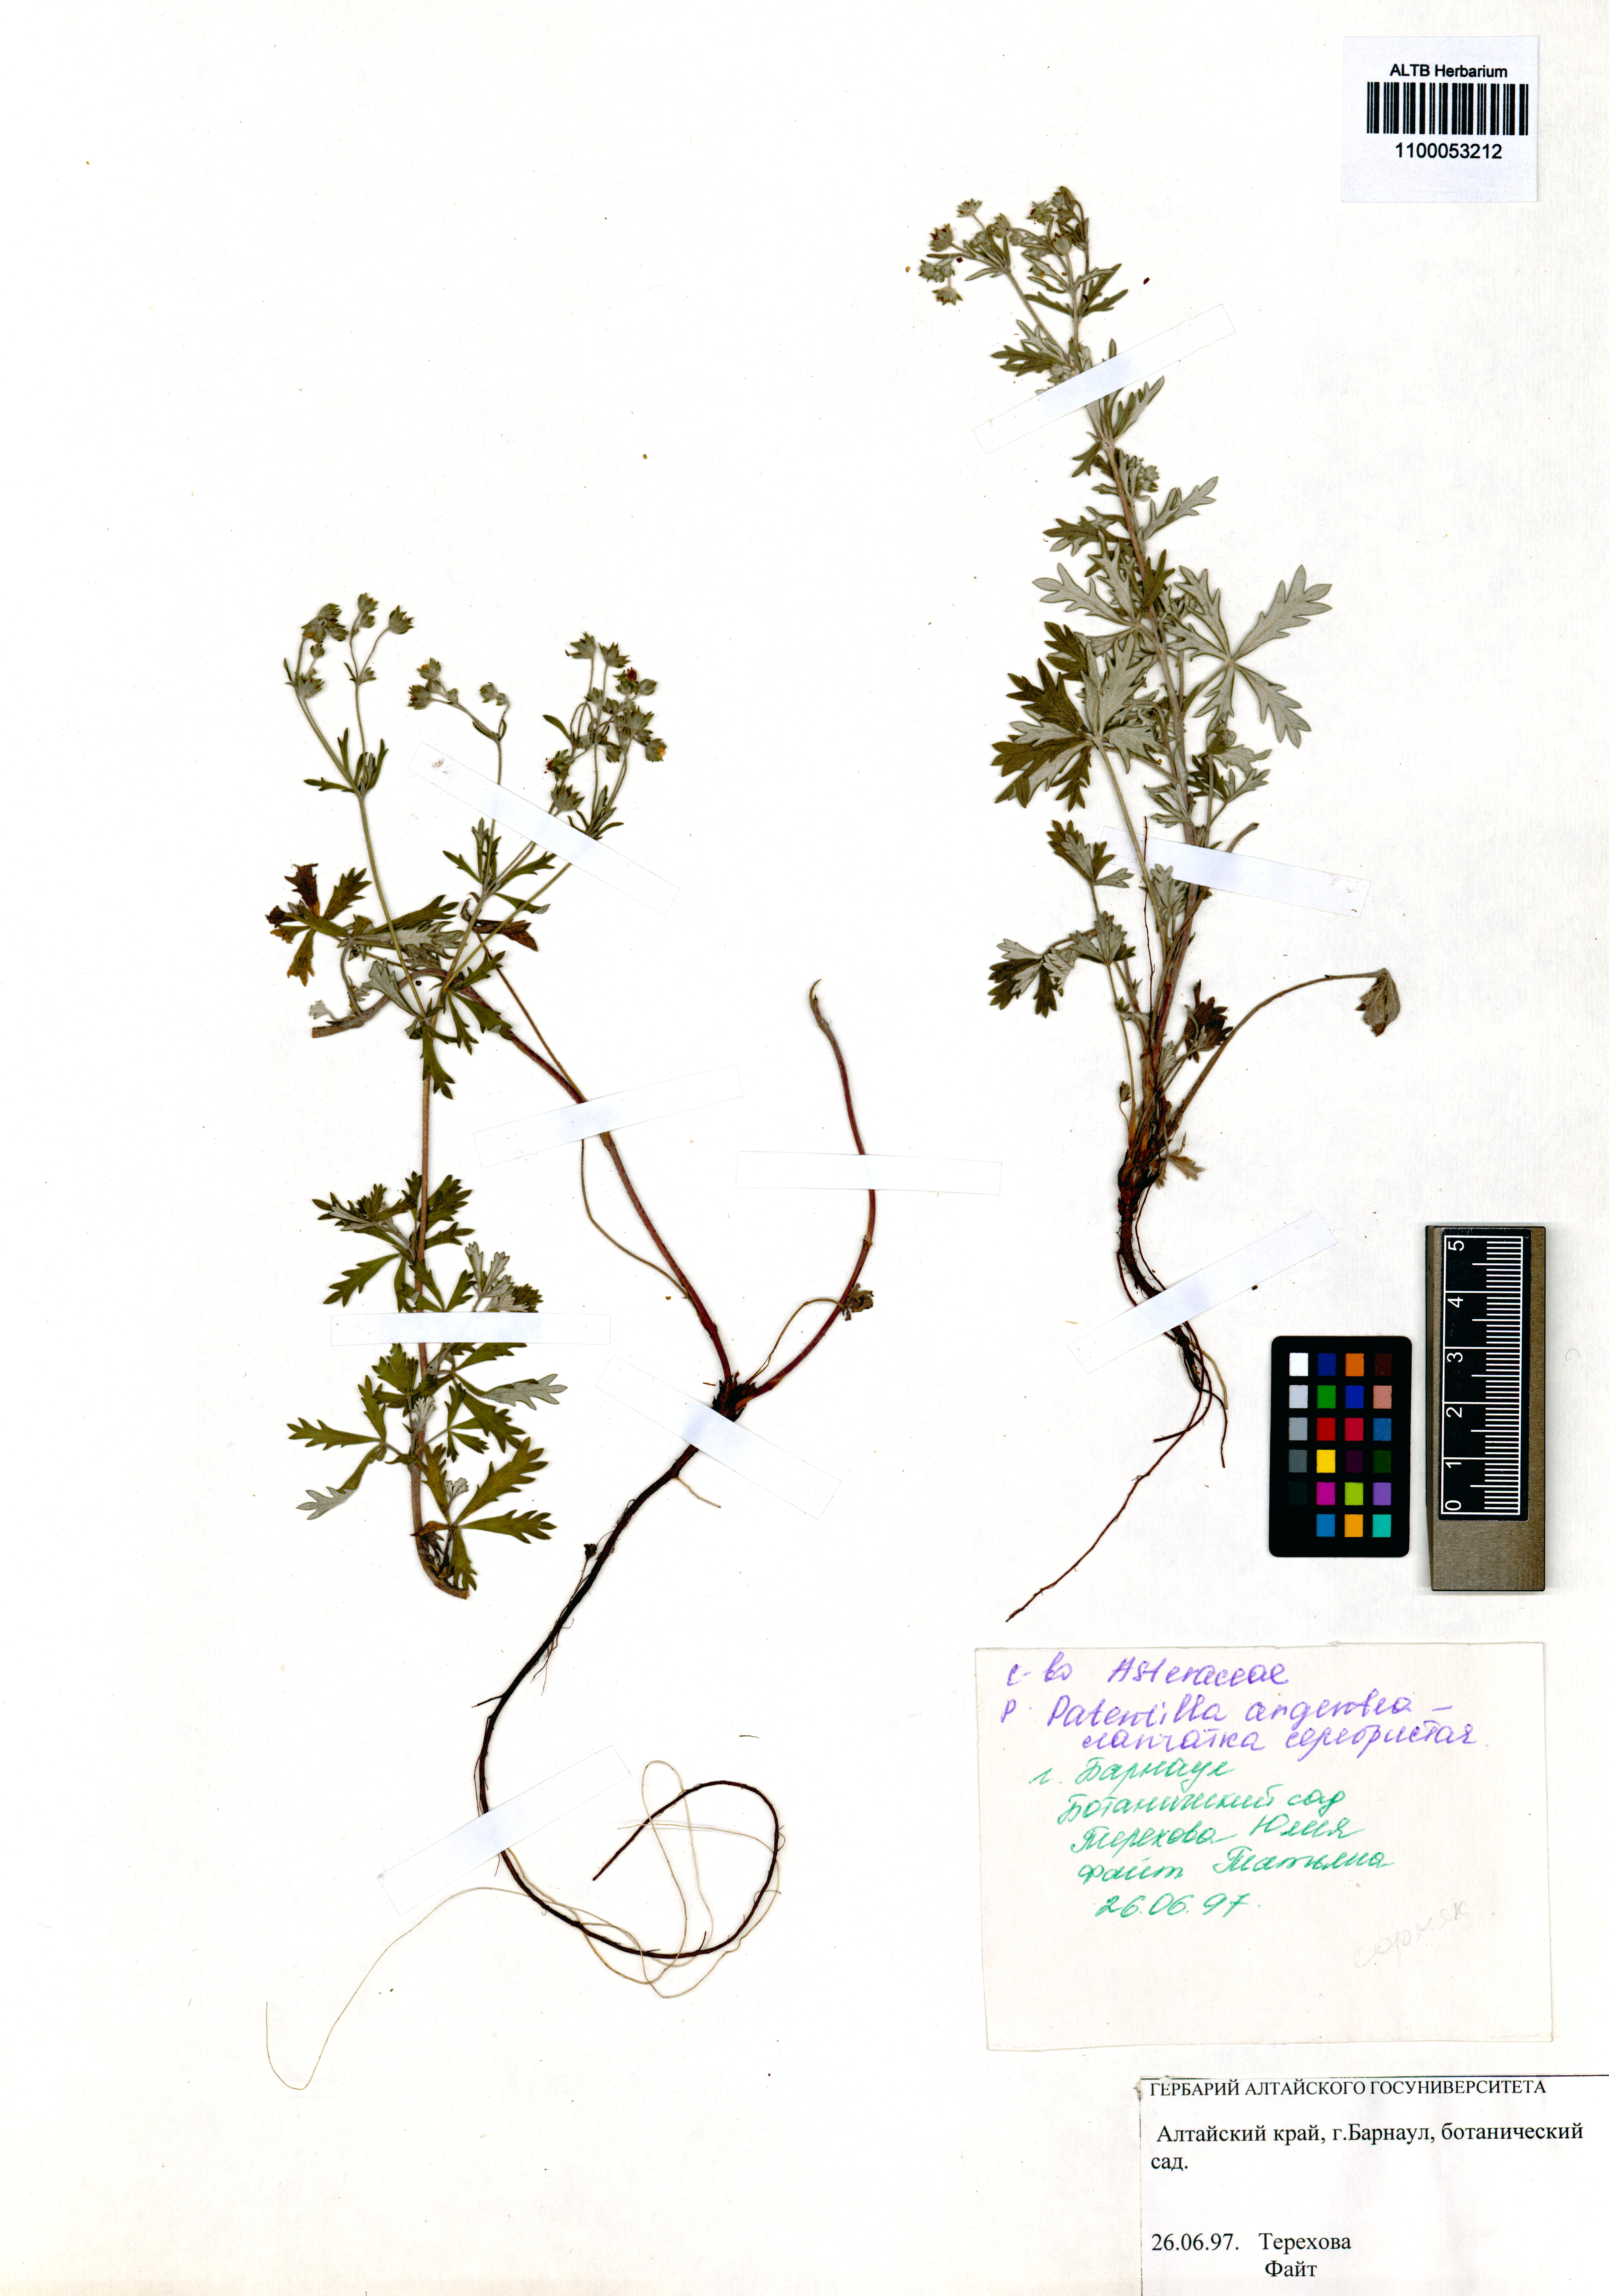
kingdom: Plantae
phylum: Tracheophyta
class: Magnoliopsida
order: Rosales
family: Rosaceae
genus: Potentilla
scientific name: Potentilla argentea
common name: Hoary cinquefoil
